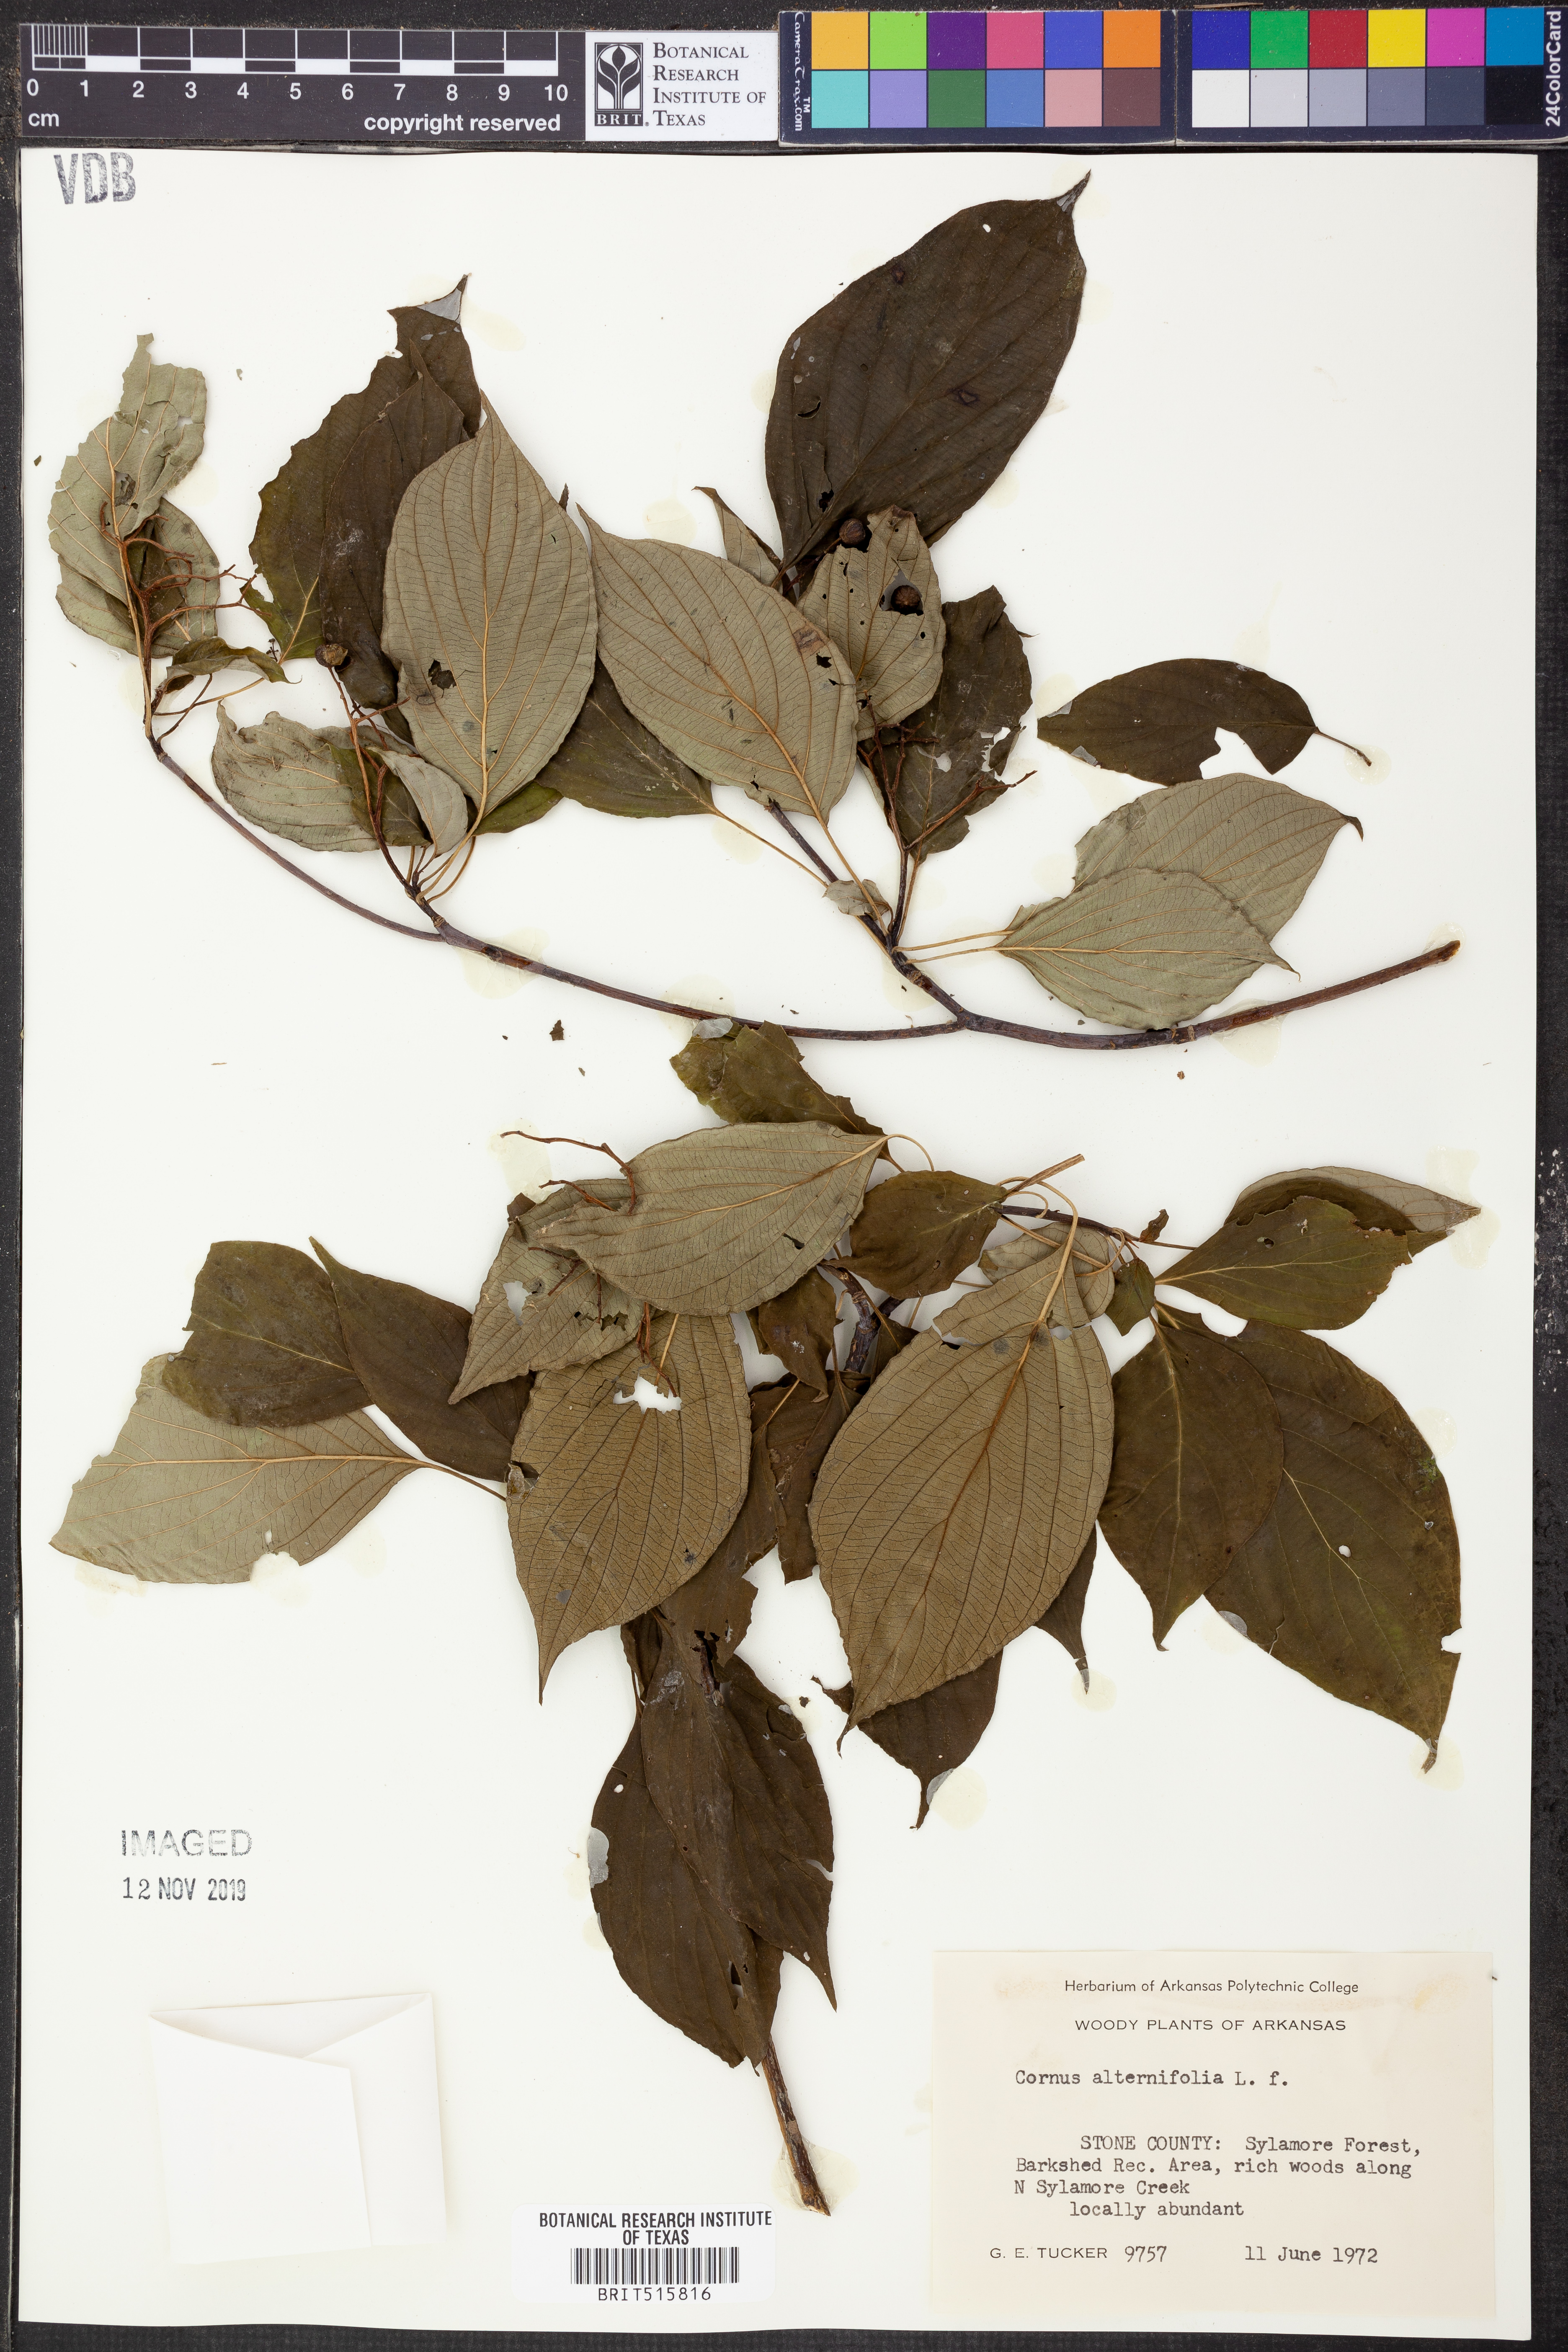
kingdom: Plantae
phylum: Tracheophyta
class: Magnoliopsida
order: Cornales
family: Cornaceae
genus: Cornus
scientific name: Cornus alternifolia
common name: Pagoda dogwood
